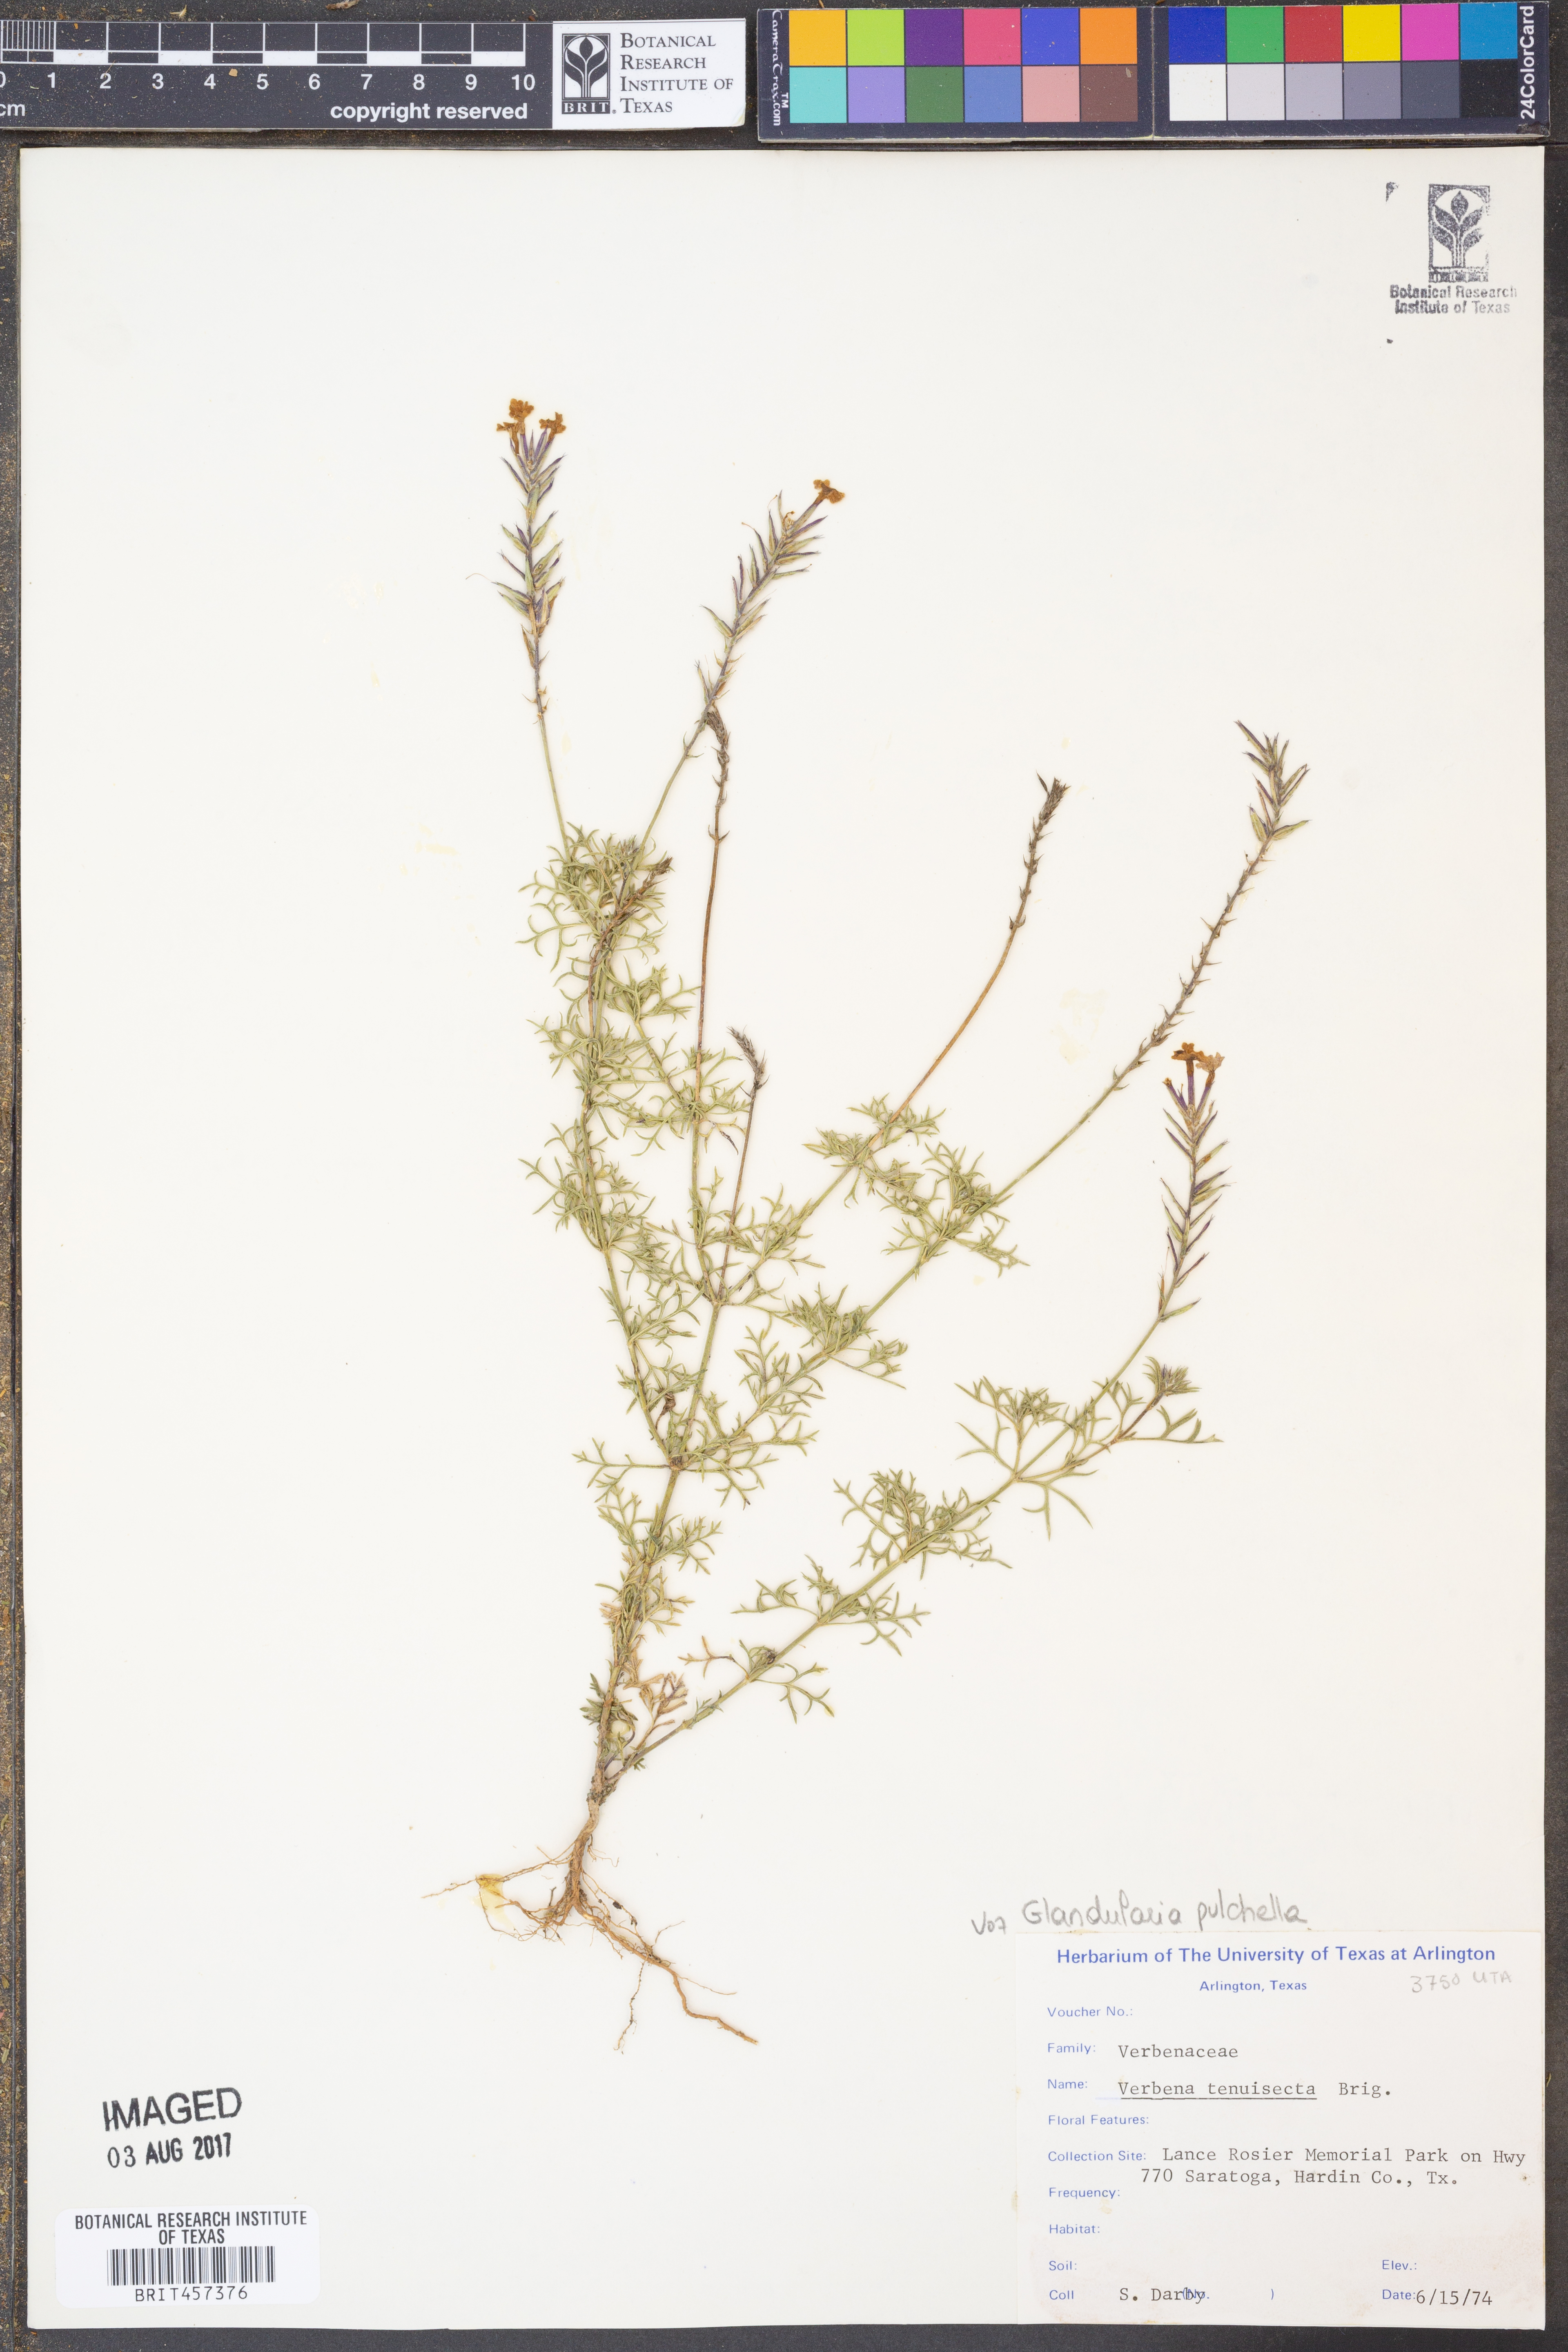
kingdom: Plantae
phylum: Tracheophyta
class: Magnoliopsida
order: Lamiales
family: Verbenaceae
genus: Verbena
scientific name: Verbena tenera
